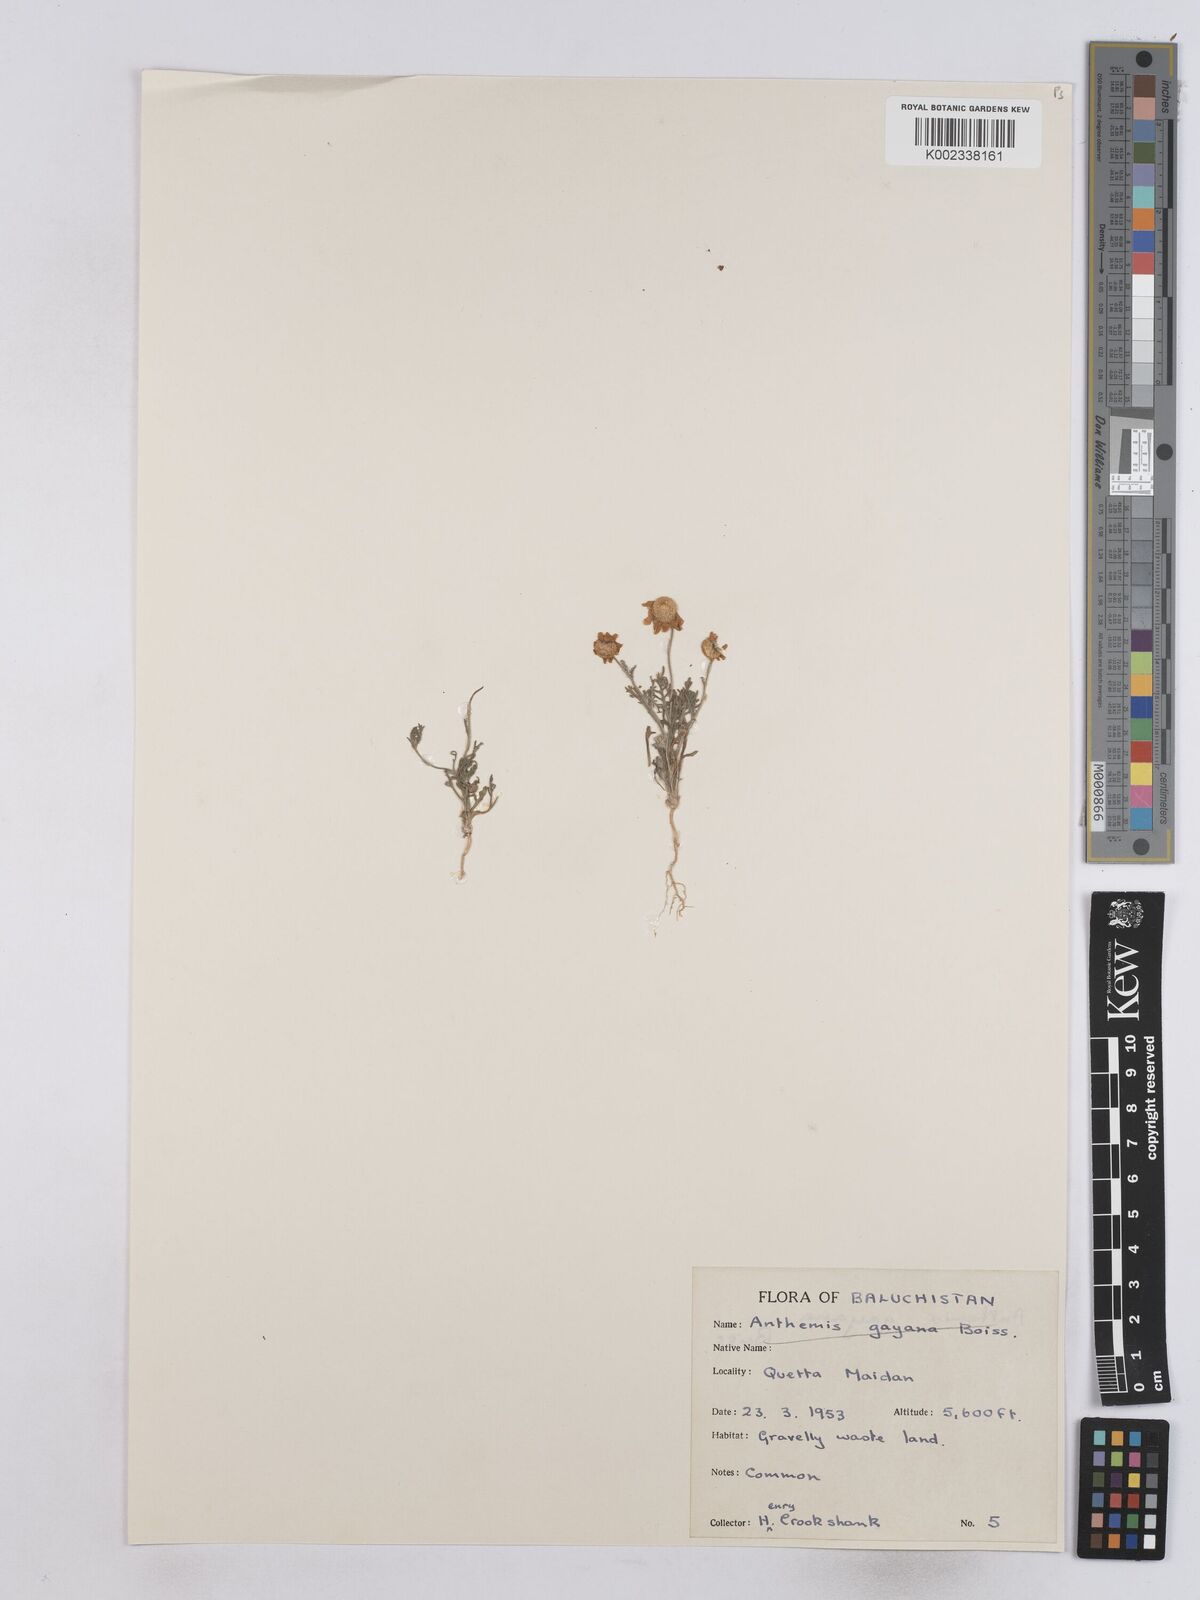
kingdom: Plantae
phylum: Tracheophyta
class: Magnoliopsida
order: Asterales
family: Asteraceae
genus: Matricaria
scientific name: Matricaria
